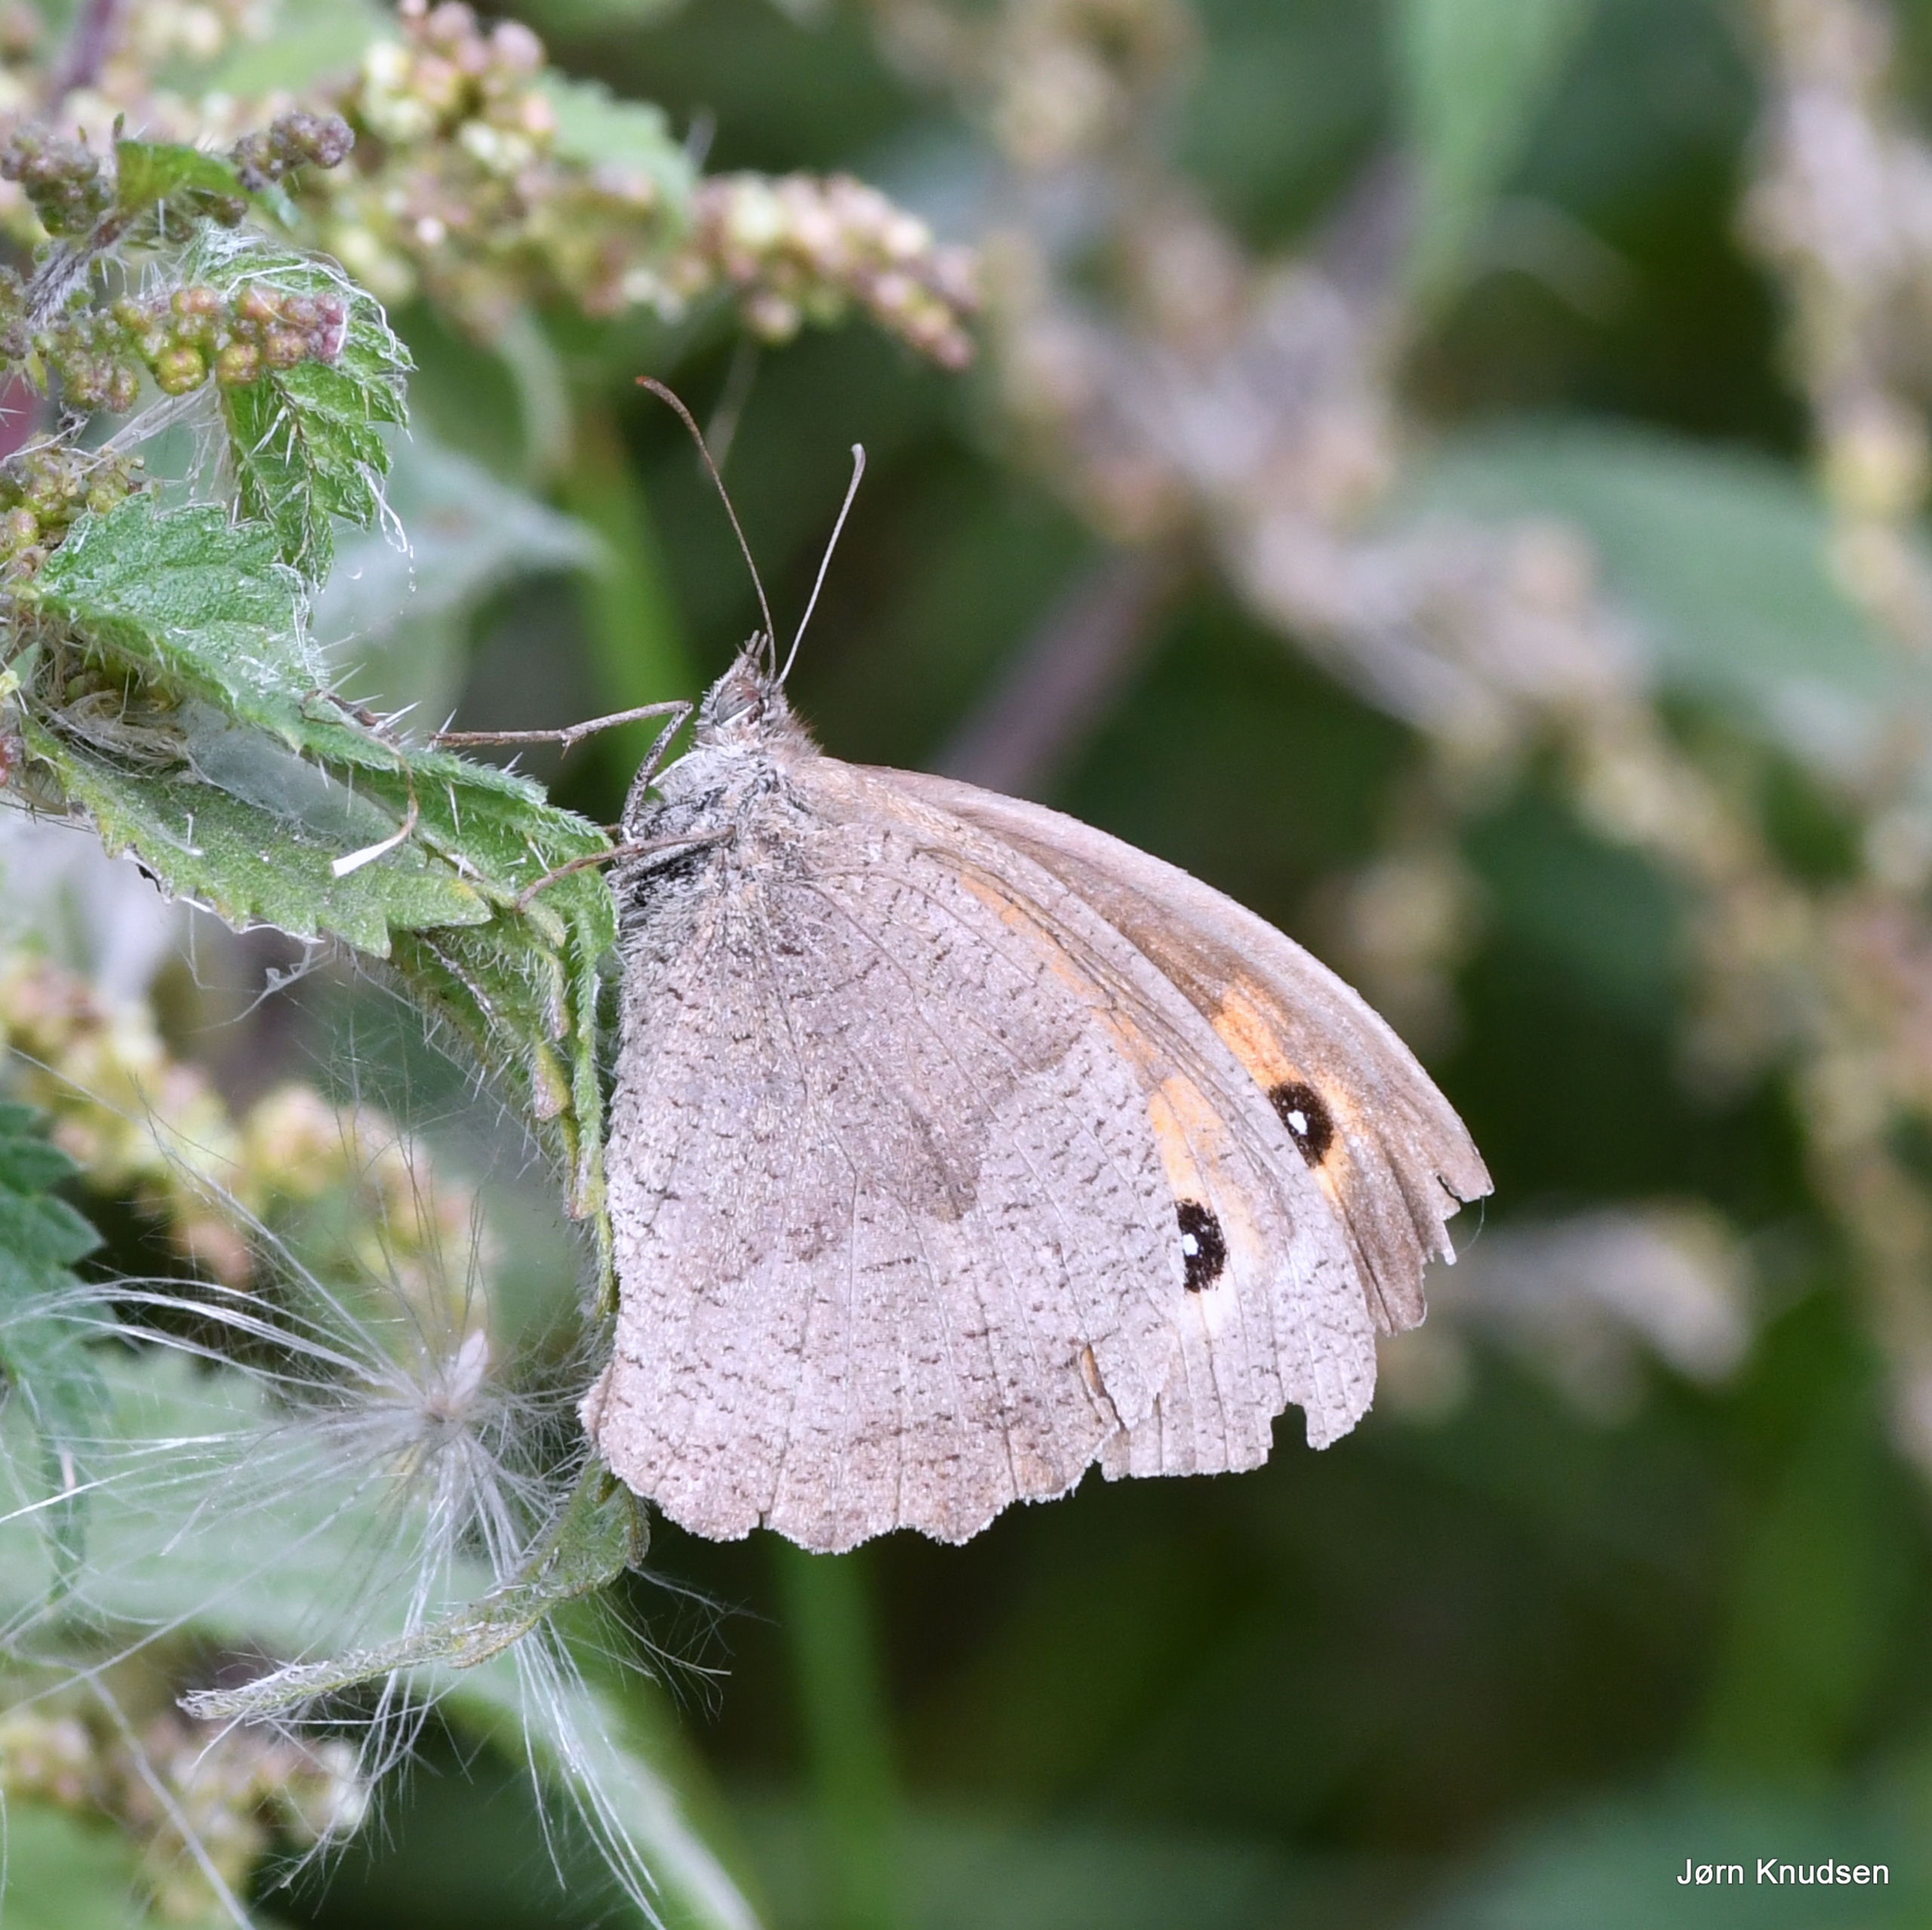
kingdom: Animalia
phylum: Arthropoda
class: Insecta
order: Lepidoptera
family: Nymphalidae
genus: Maniola
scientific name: Maniola jurtina
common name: Græsrandøje
